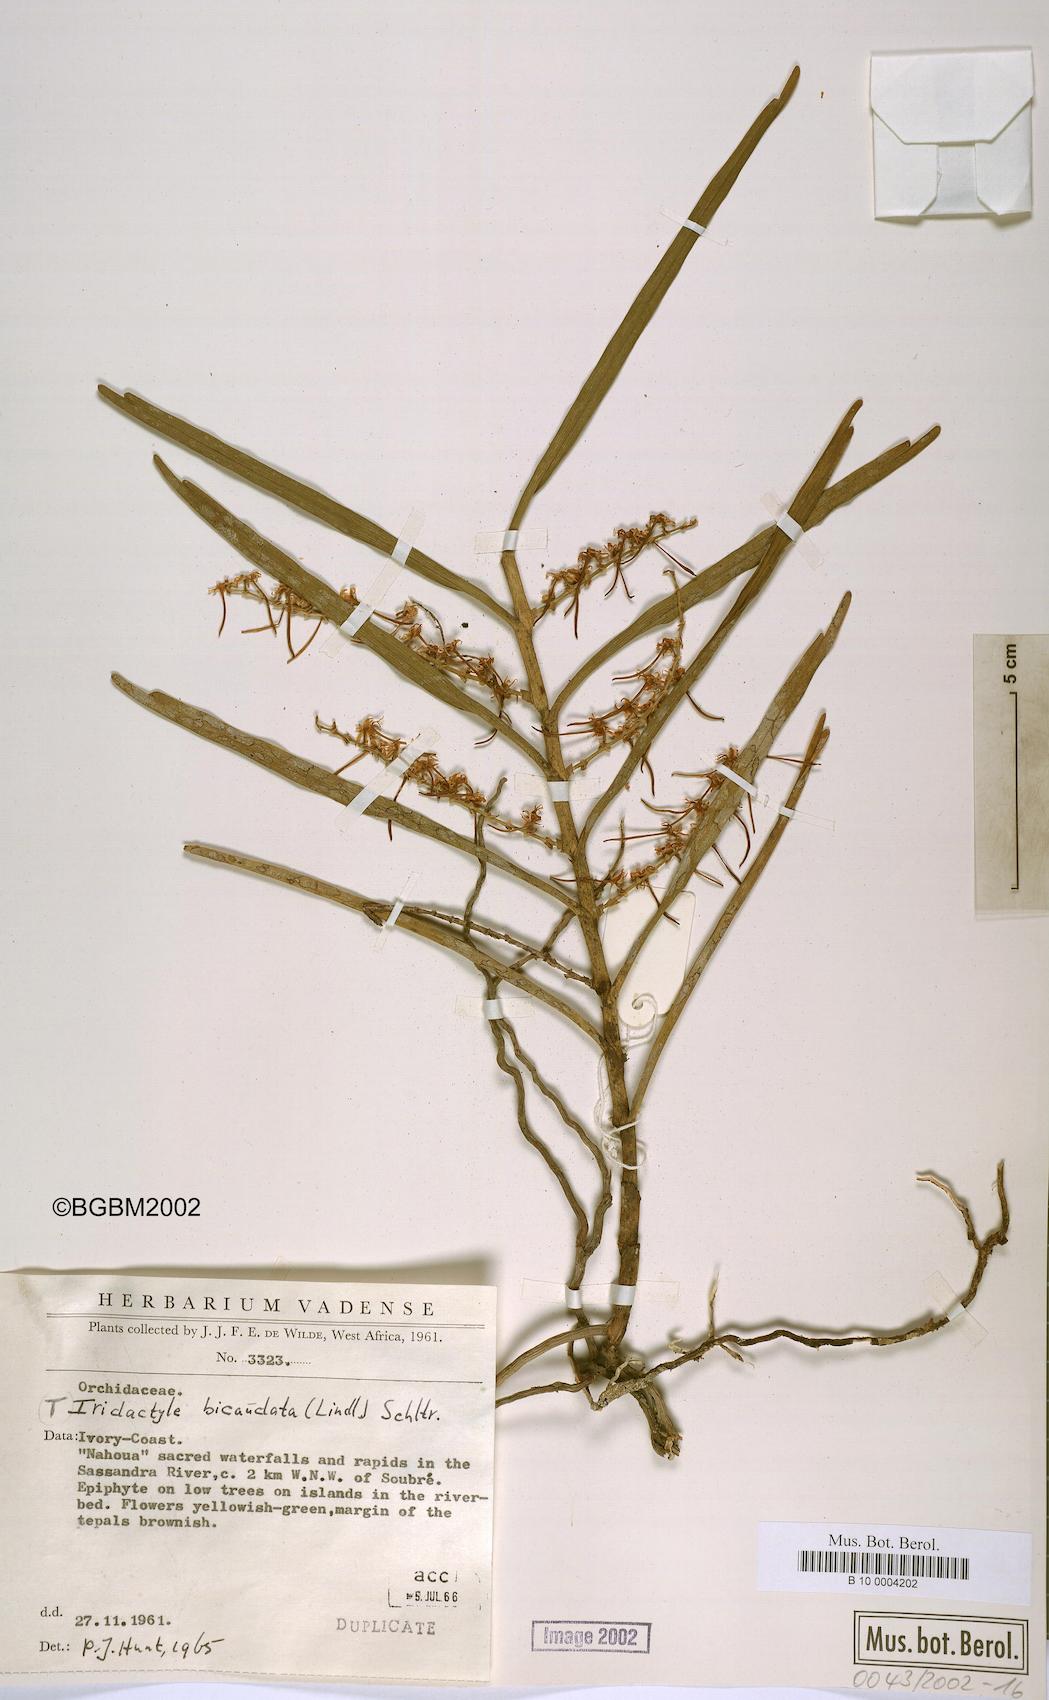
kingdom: Plantae
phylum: Tracheophyta
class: Liliopsida
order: Asparagales
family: Orchidaceae
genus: Tridactyle
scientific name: Tridactyle bicaudata
